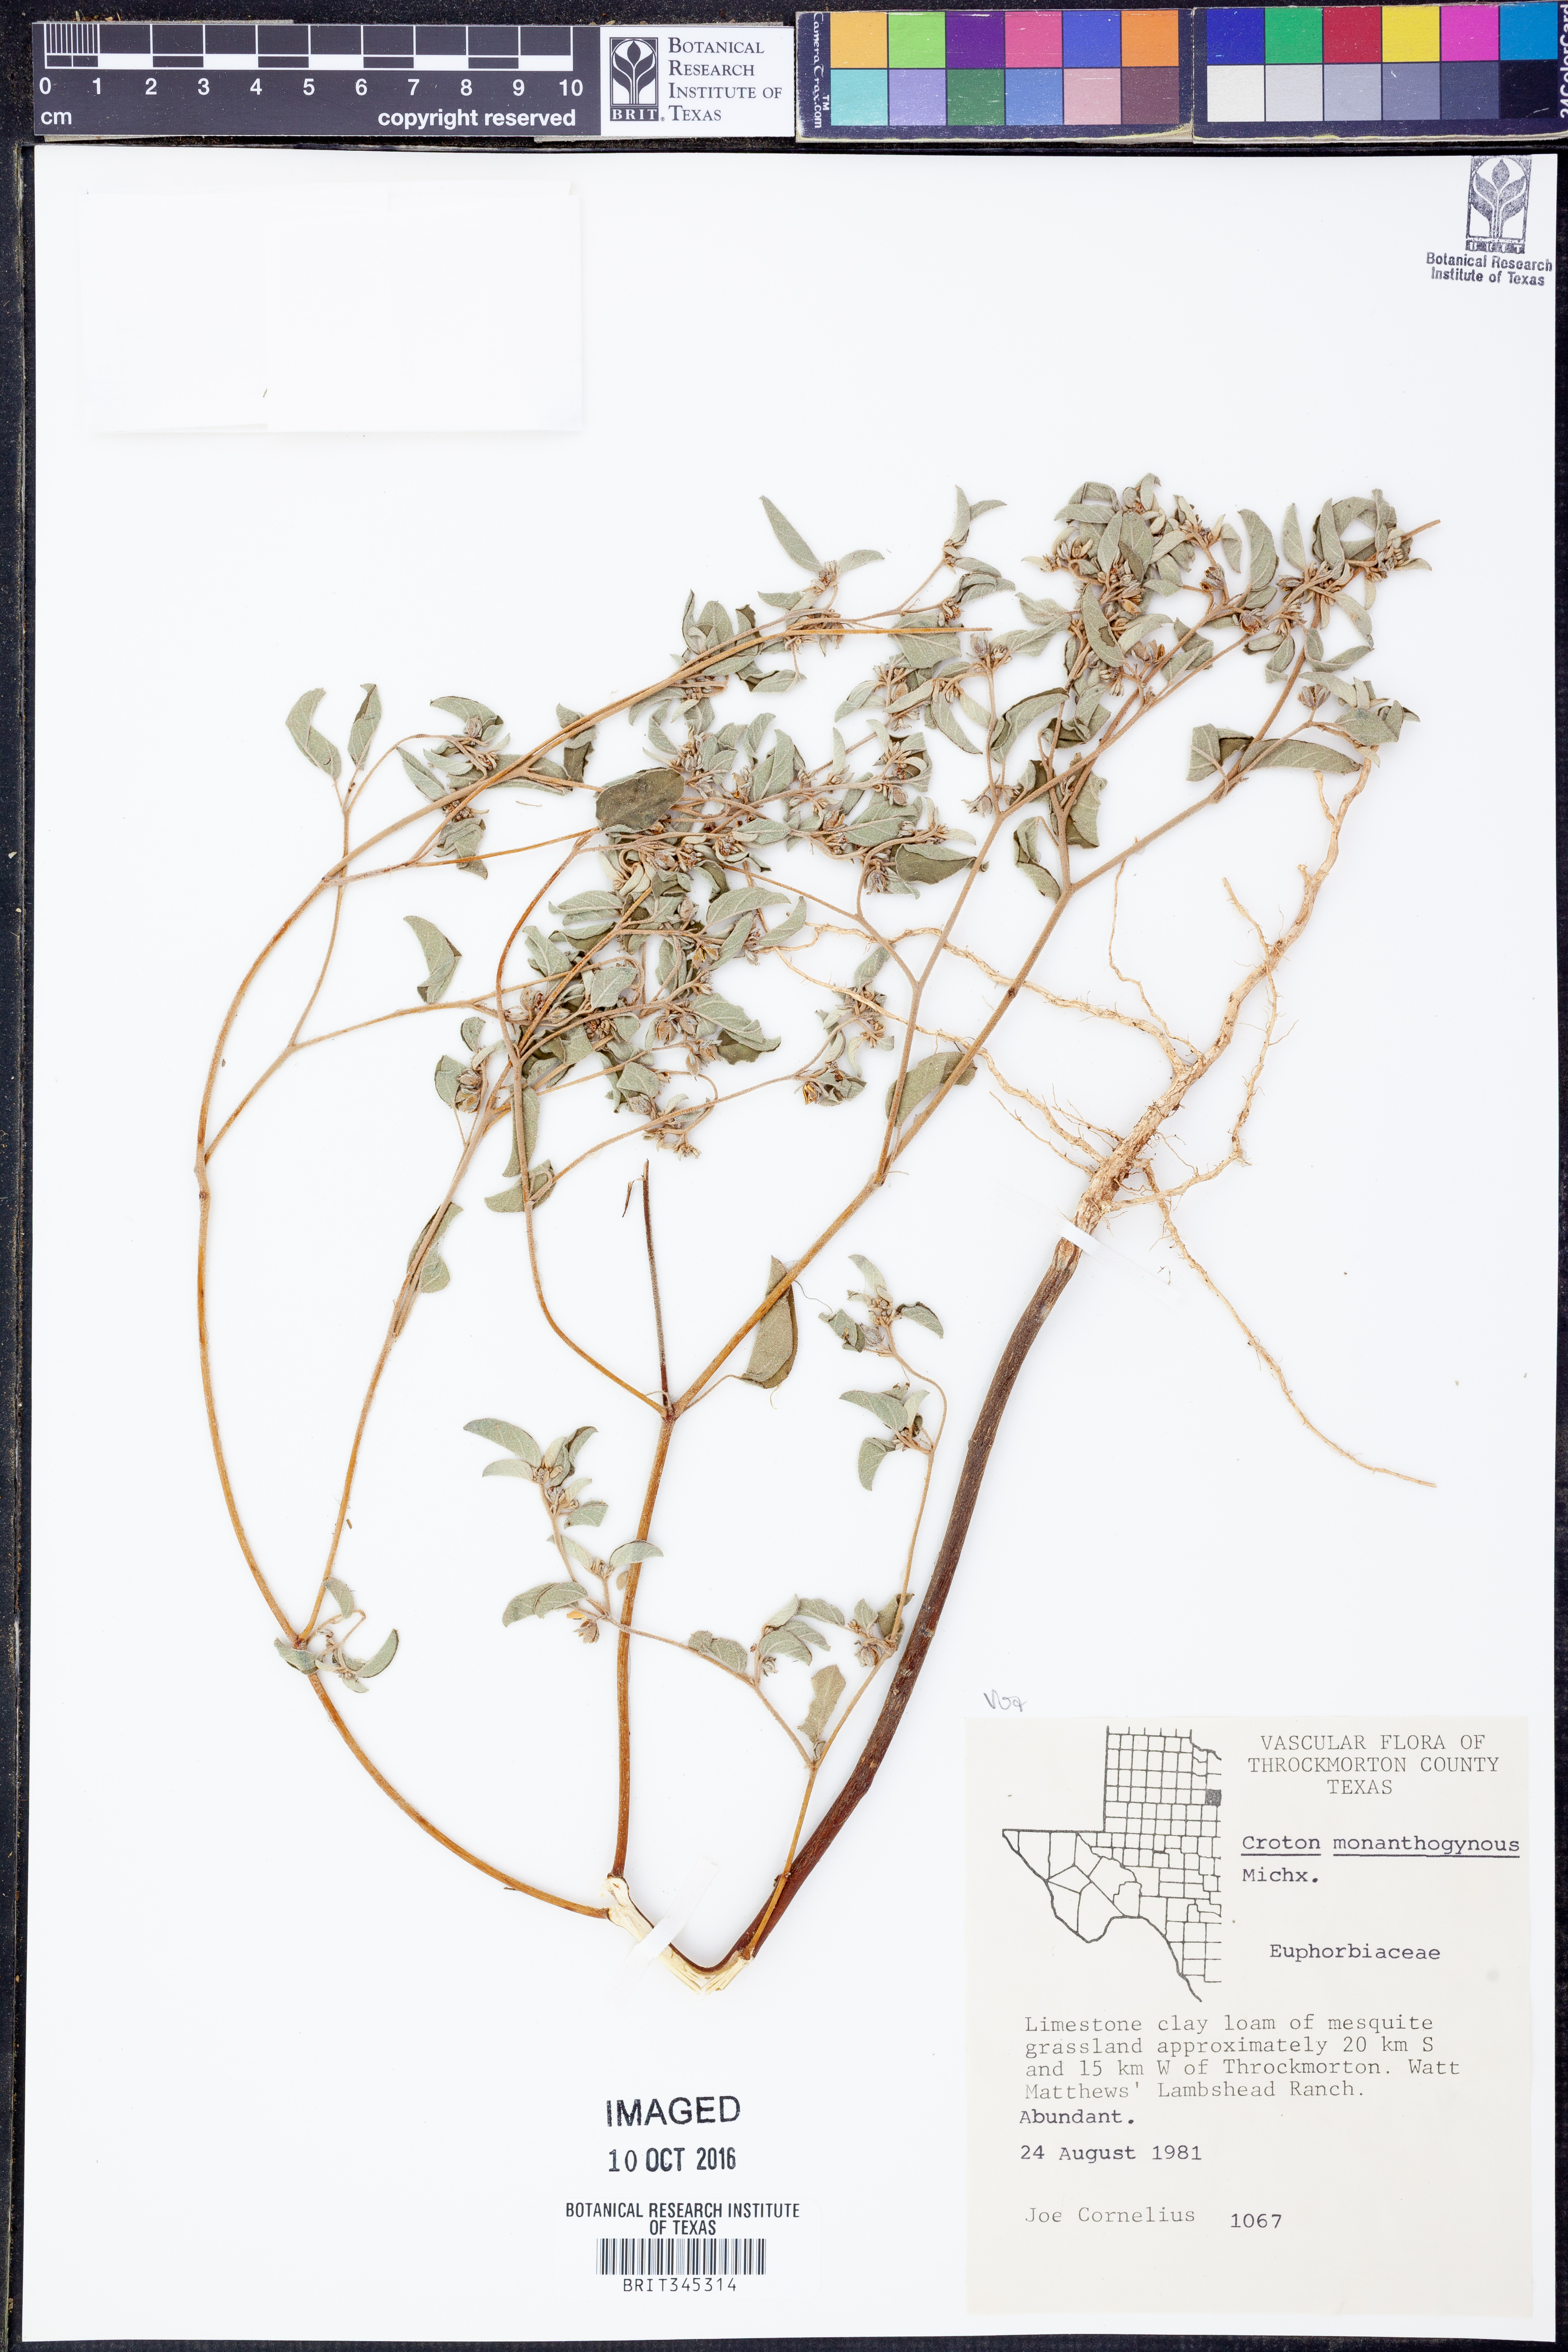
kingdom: Plantae
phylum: Tracheophyta
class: Magnoliopsida
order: Malpighiales
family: Euphorbiaceae
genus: Croton
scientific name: Croton monanthogynus
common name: One-seed croton
